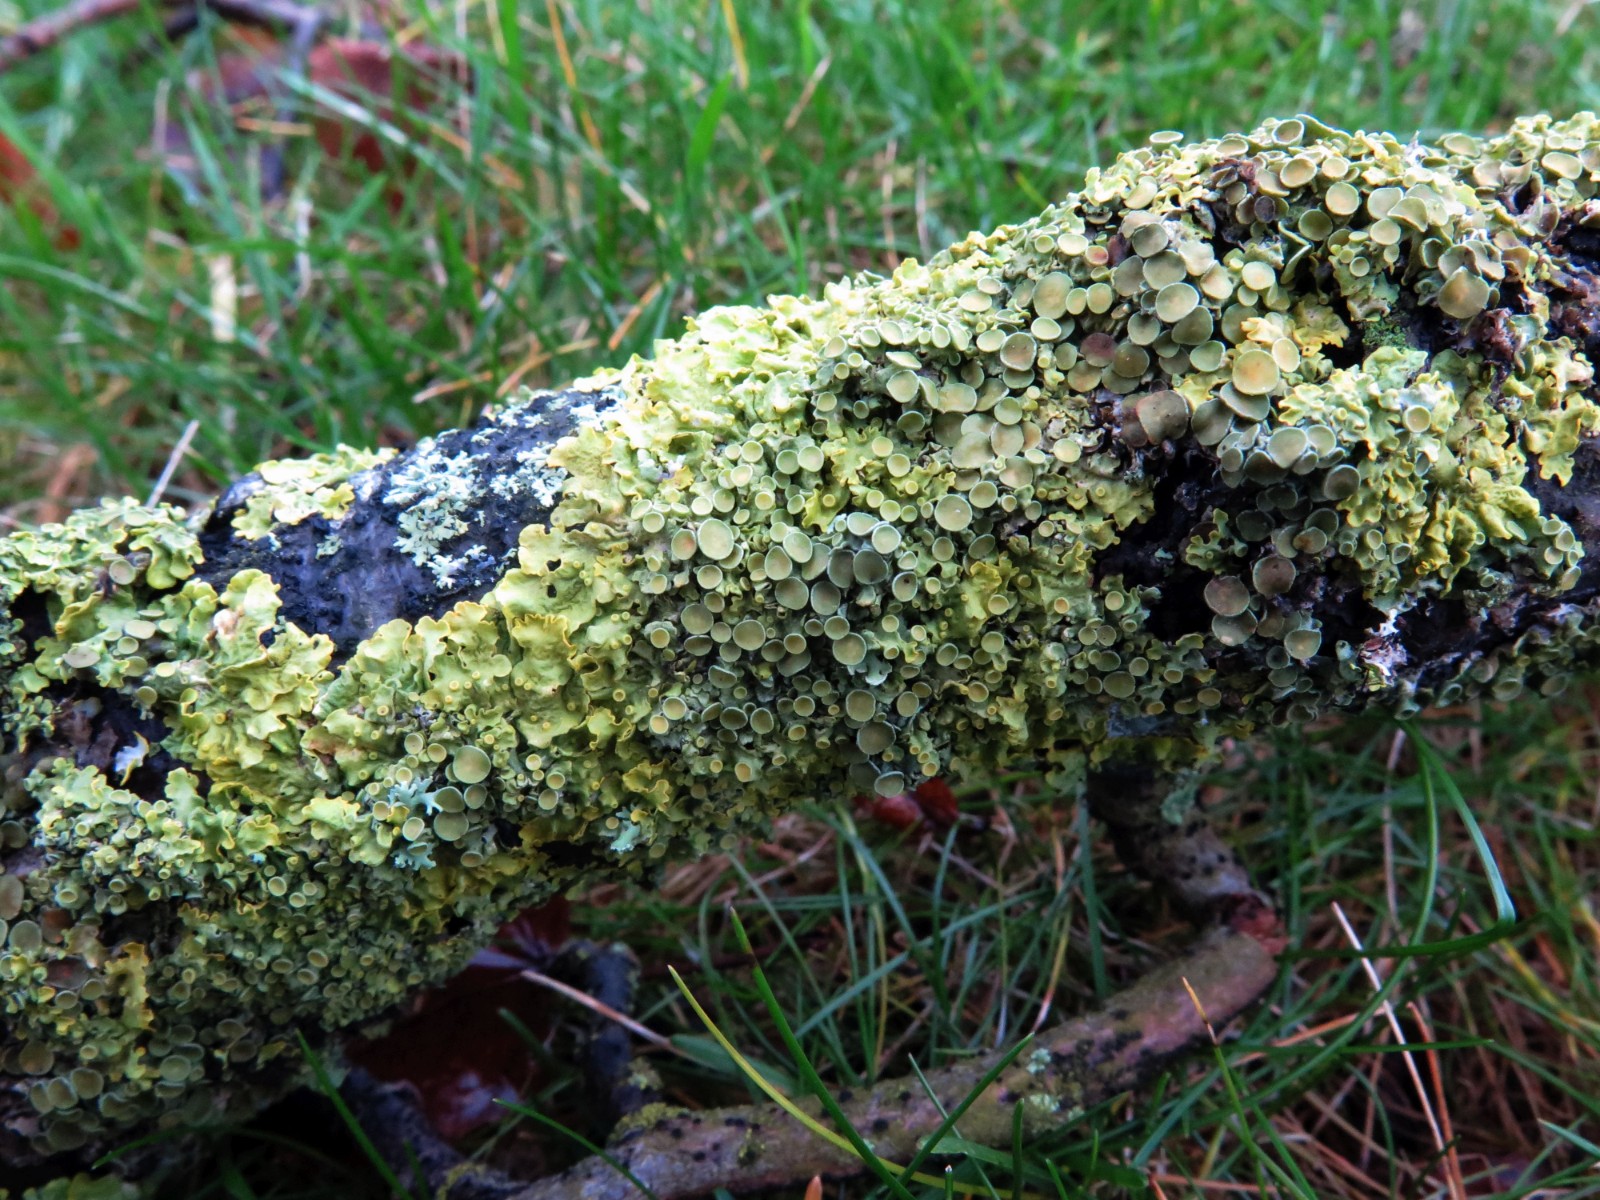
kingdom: Fungi
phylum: Ascomycota
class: Lecanoromycetes
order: Teloschistales
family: Teloschistaceae
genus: Xanthoria
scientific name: Xanthoria parietina
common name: almindelig væggelav
